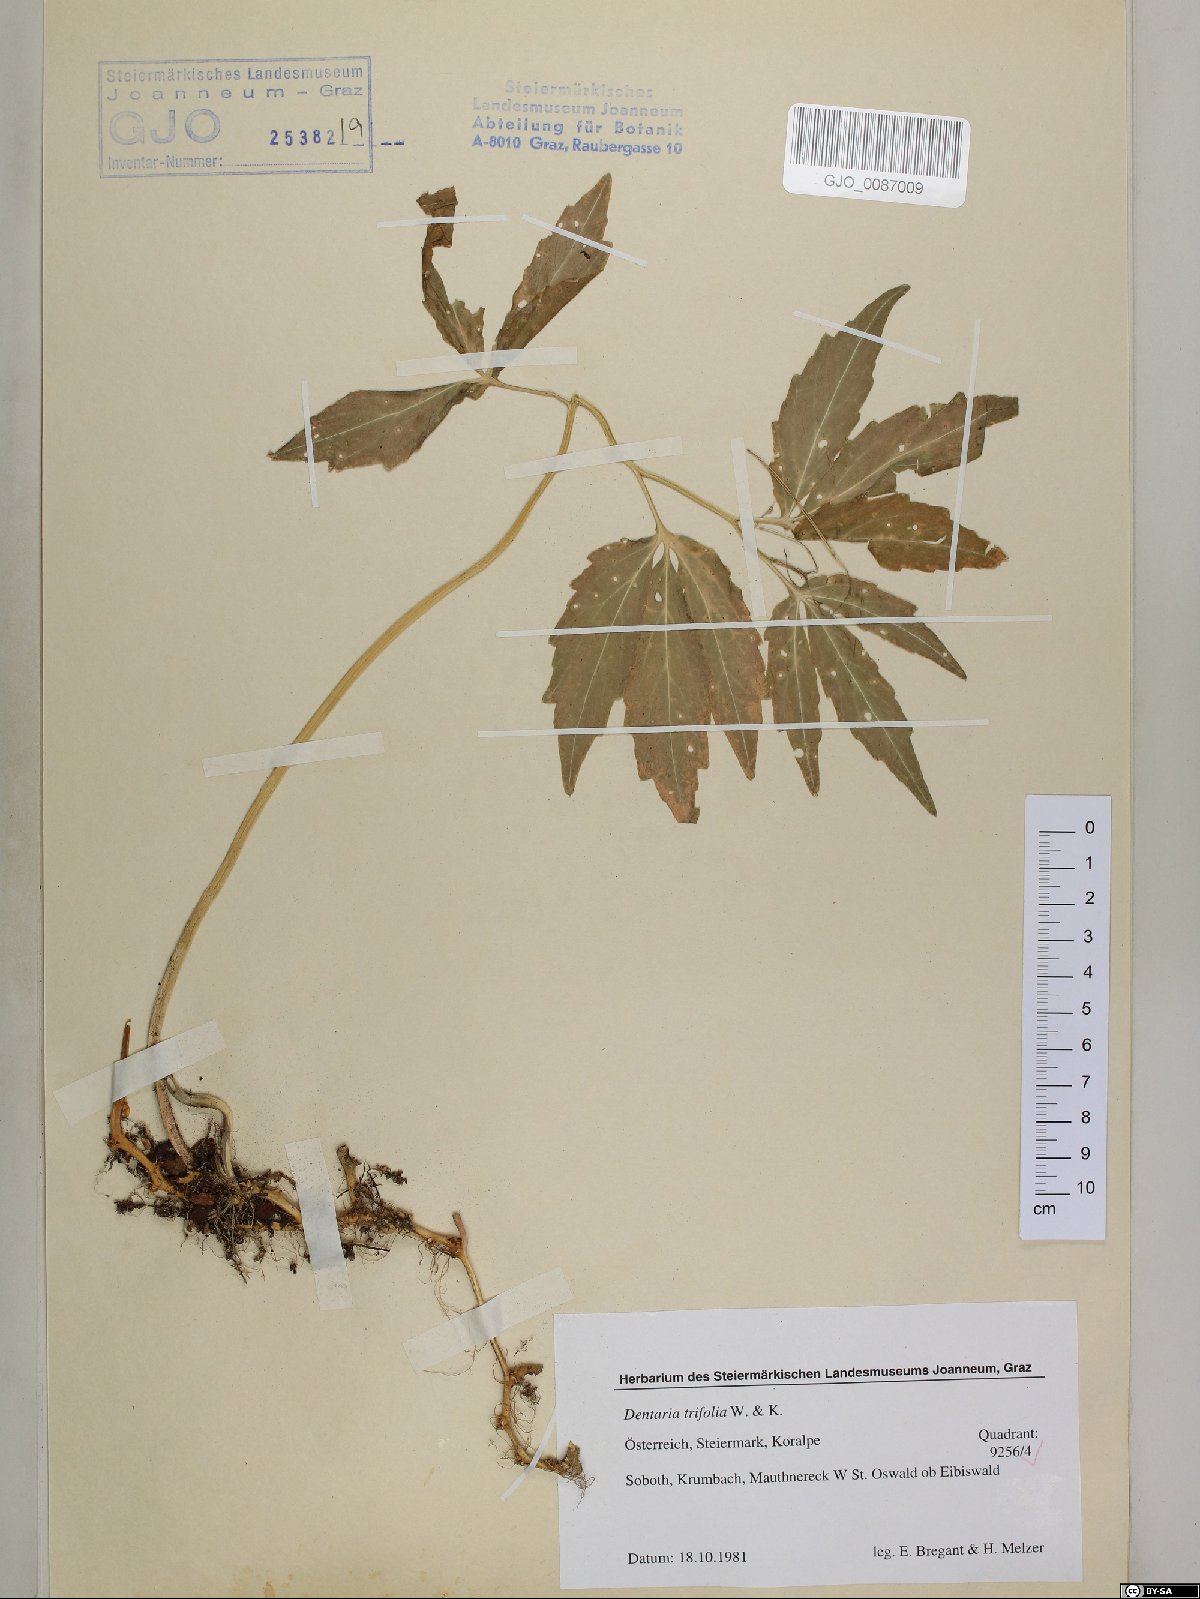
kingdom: Plantae
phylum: Tracheophyta
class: Magnoliopsida
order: Brassicales
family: Brassicaceae
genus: Cardamine
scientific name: Cardamine waldsteinii
